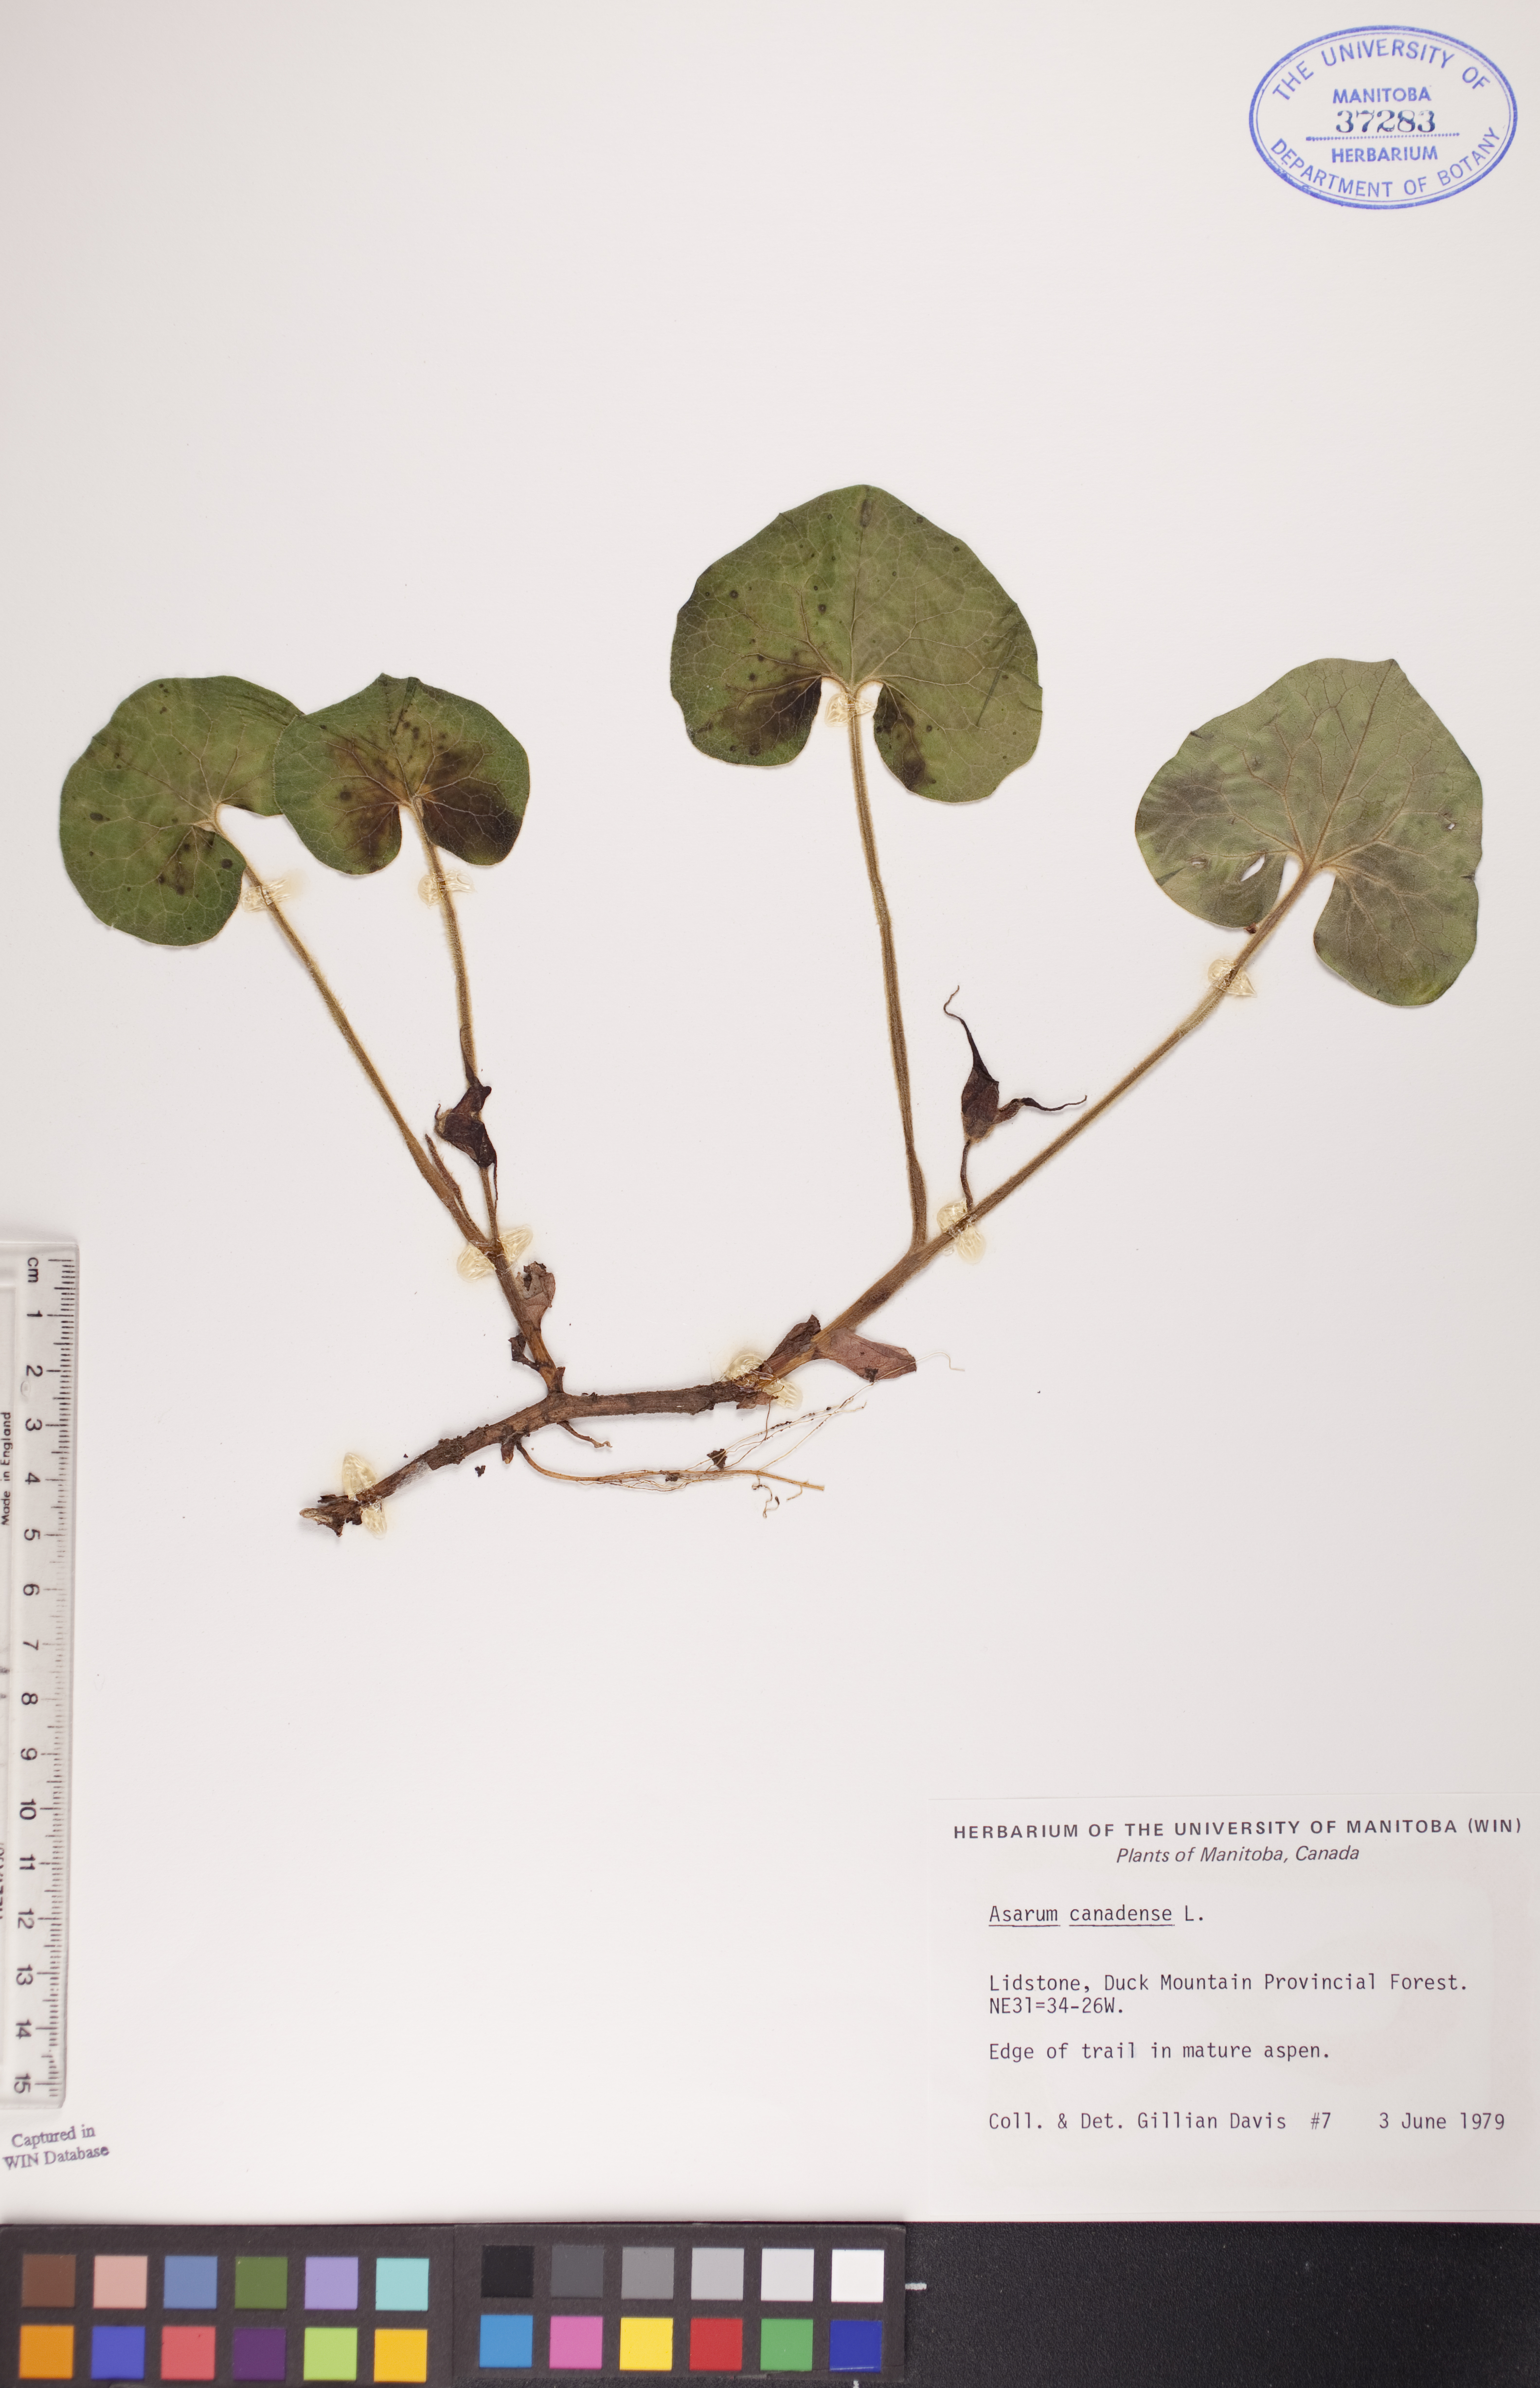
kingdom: Plantae
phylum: Tracheophyta
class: Magnoliopsida
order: Piperales
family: Aristolochiaceae
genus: Asarum
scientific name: Asarum canadense
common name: Wild ginger
